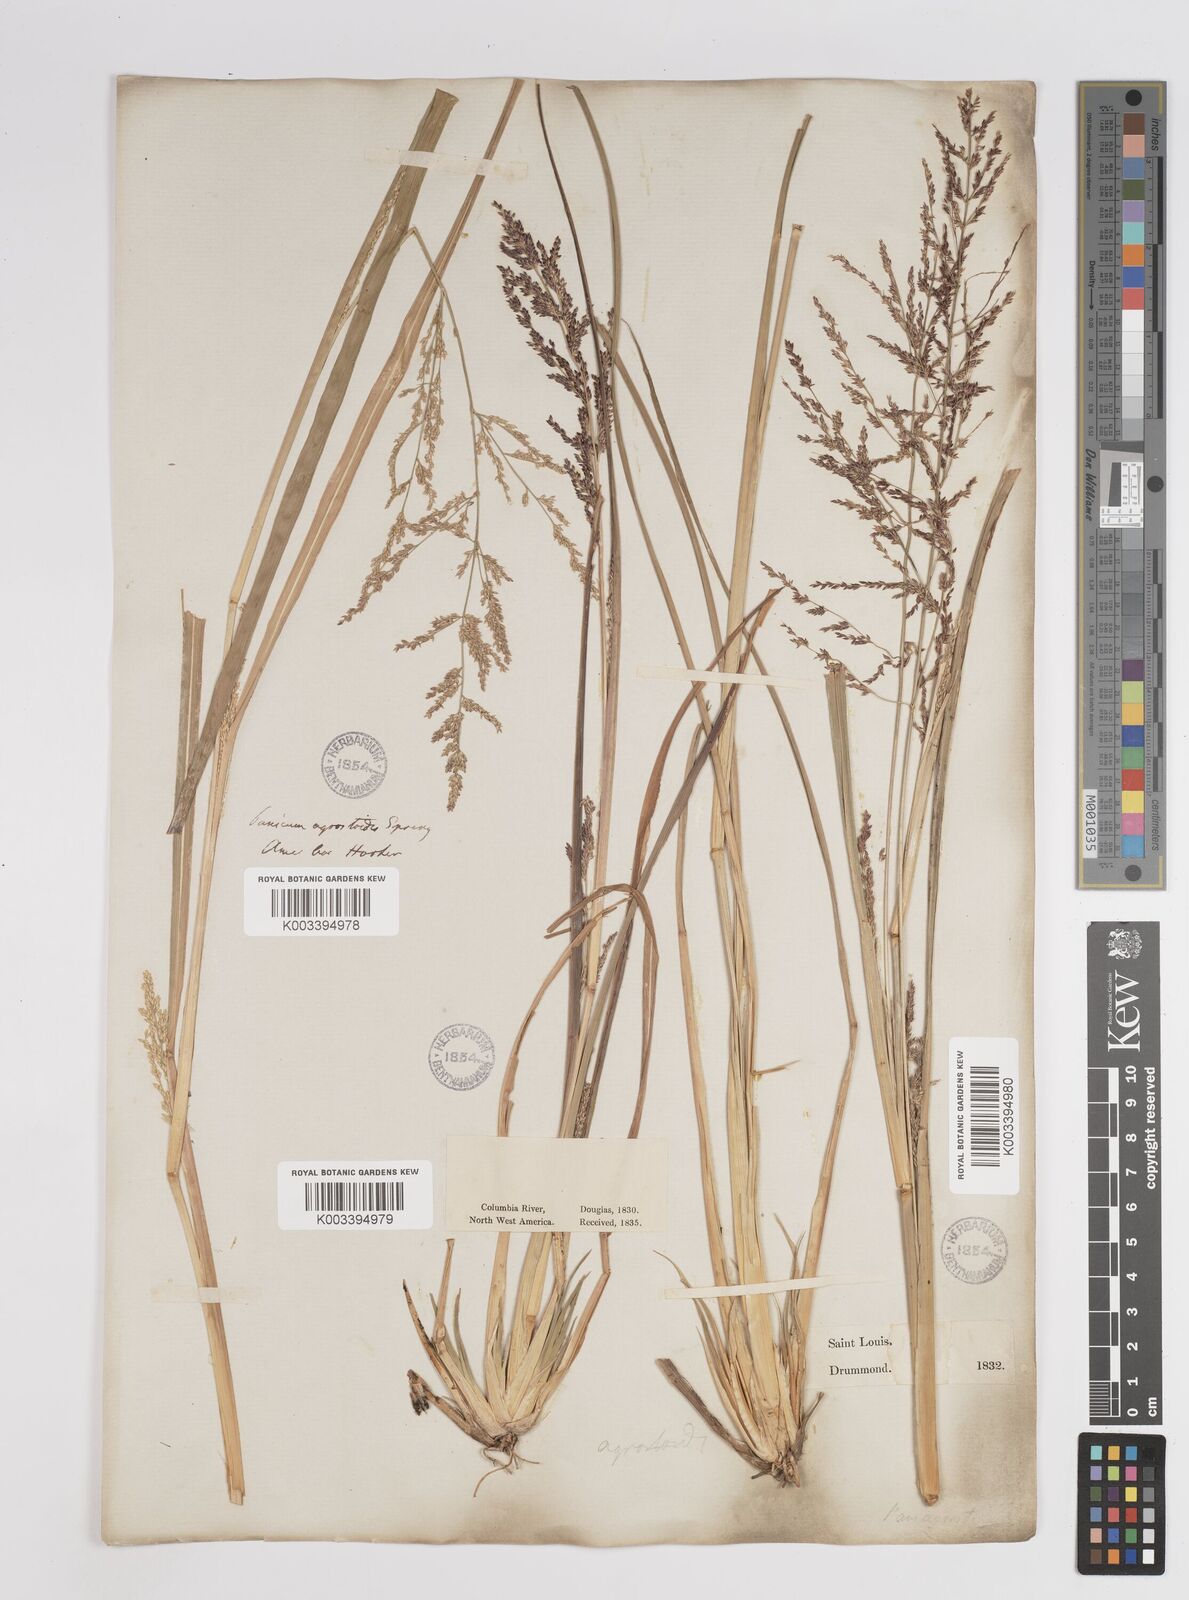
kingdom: Plantae
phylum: Tracheophyta
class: Liliopsida
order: Poales
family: Poaceae
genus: Steinchisma
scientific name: Steinchisma laxum
